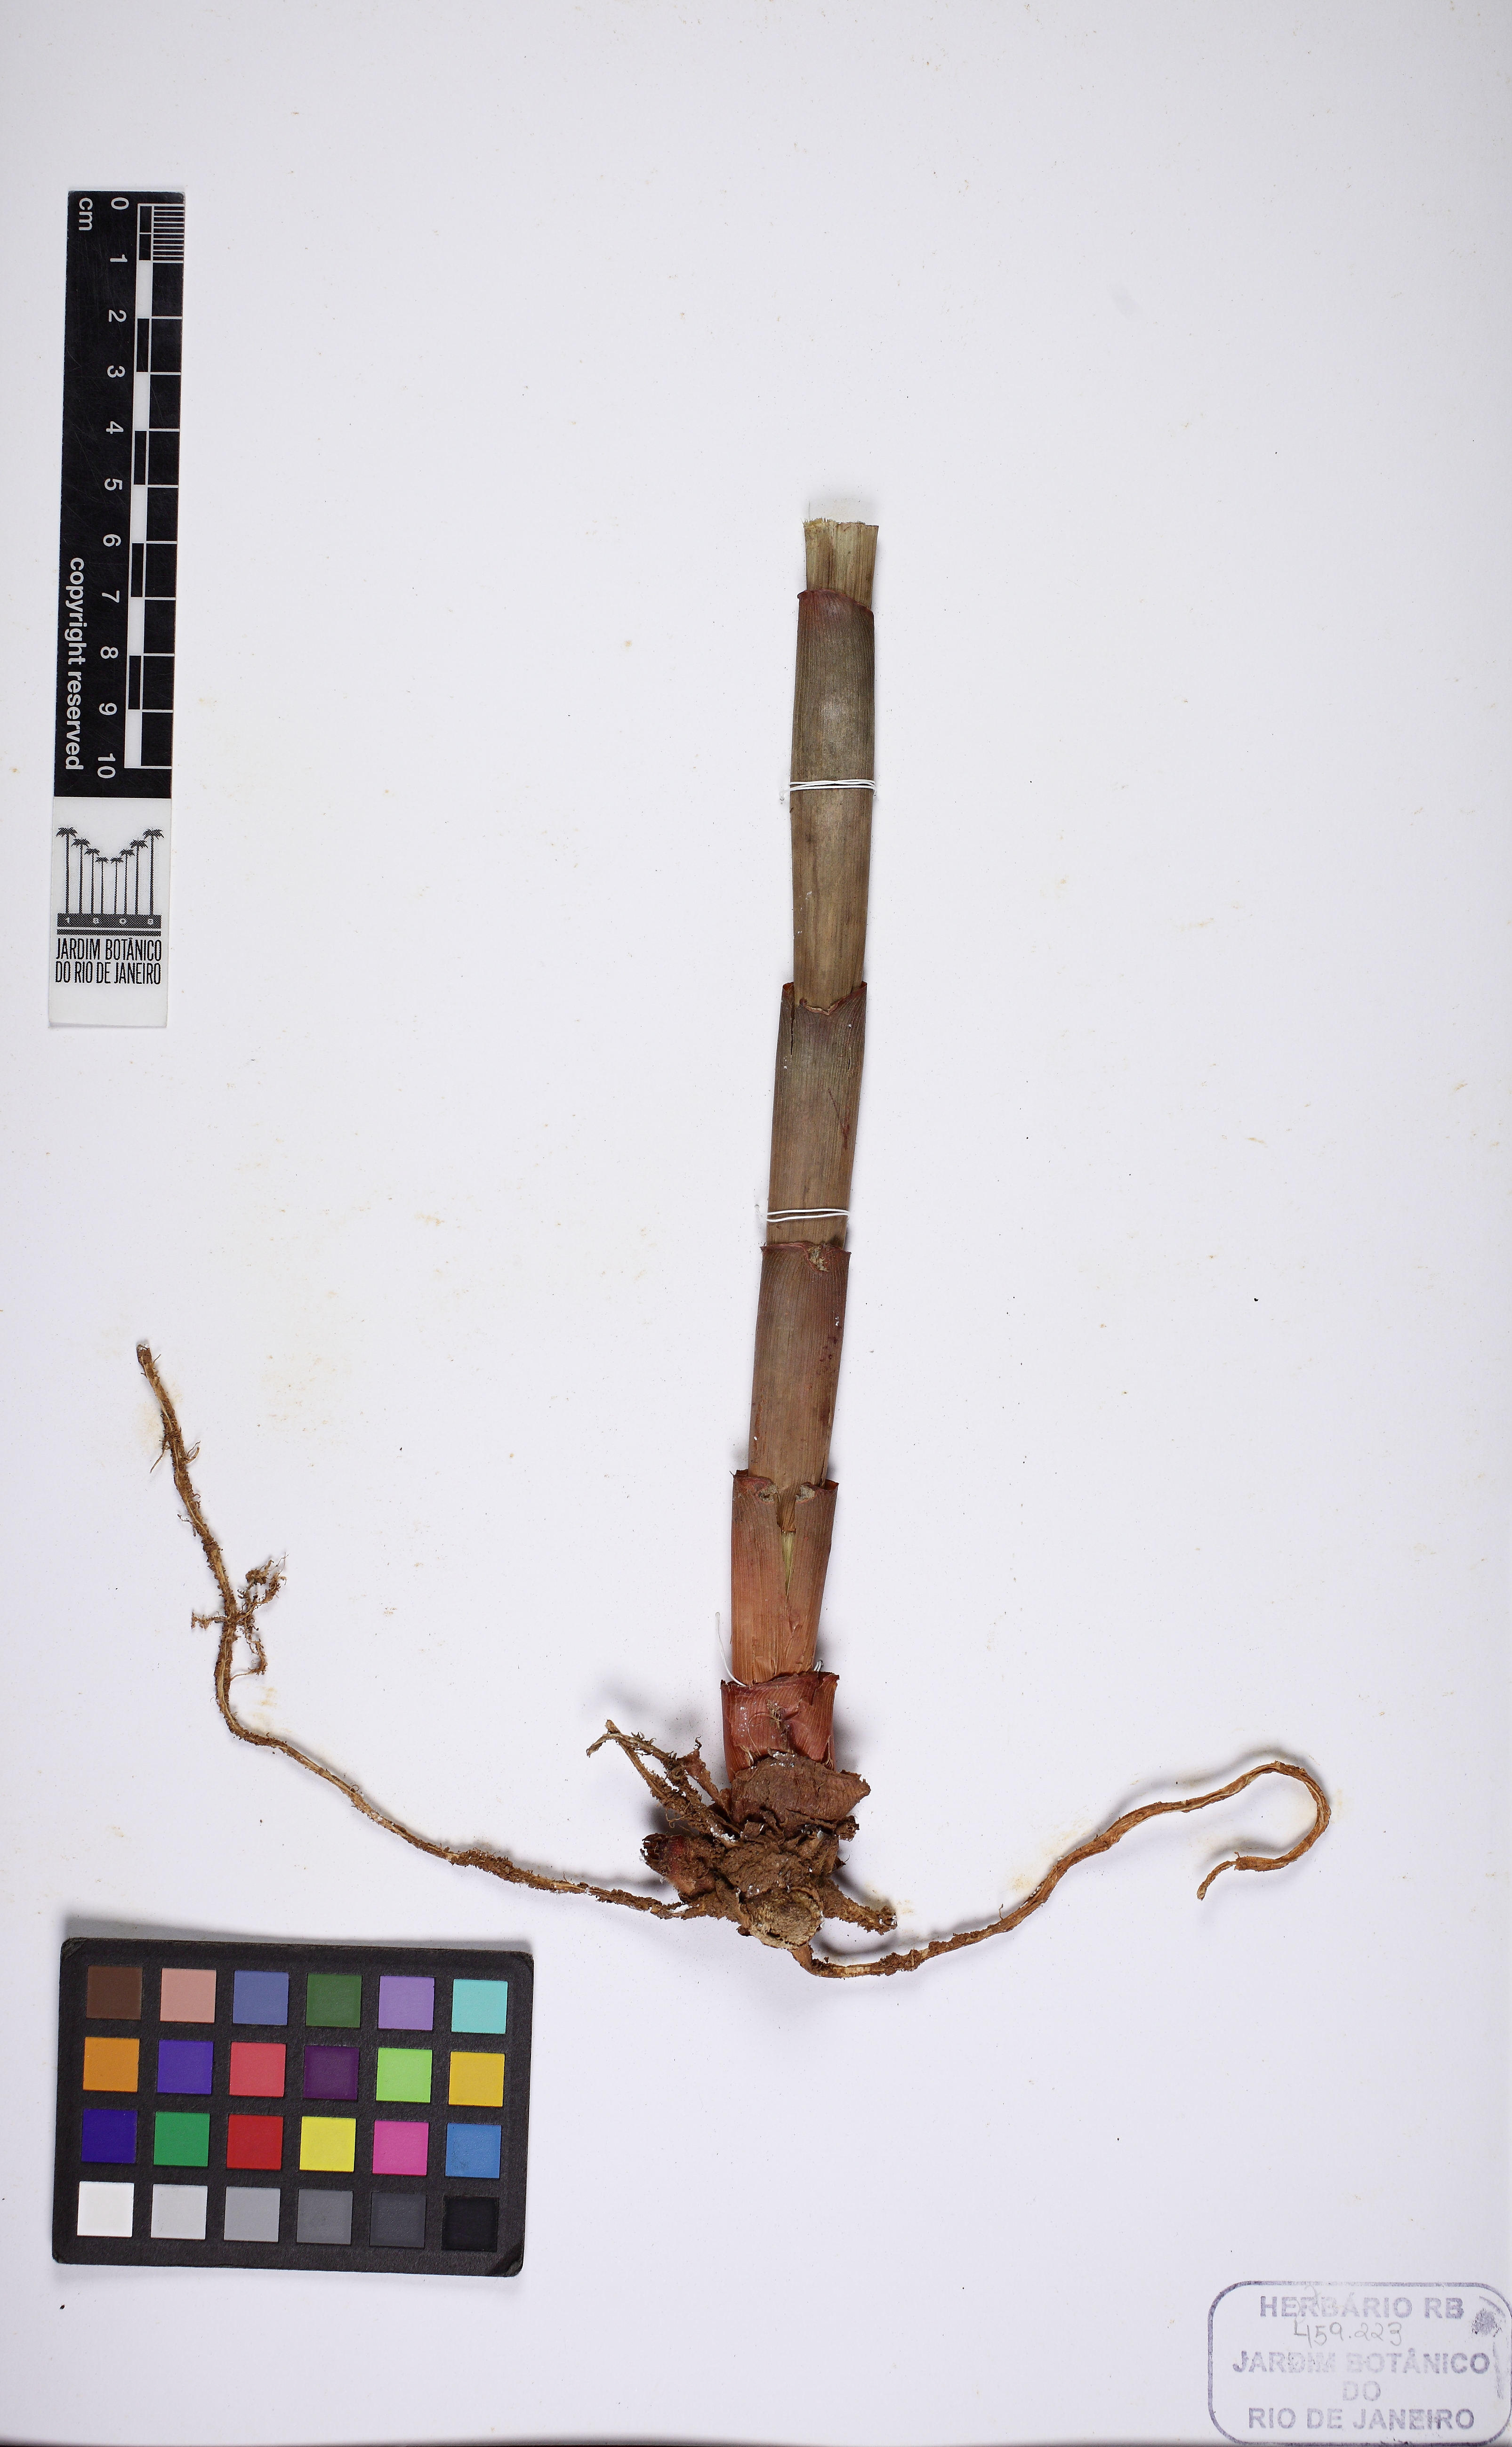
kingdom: Plantae
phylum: Tracheophyta
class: Liliopsida
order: Zingiberales
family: Costaceae
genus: Costus
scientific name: Costus spiralis
